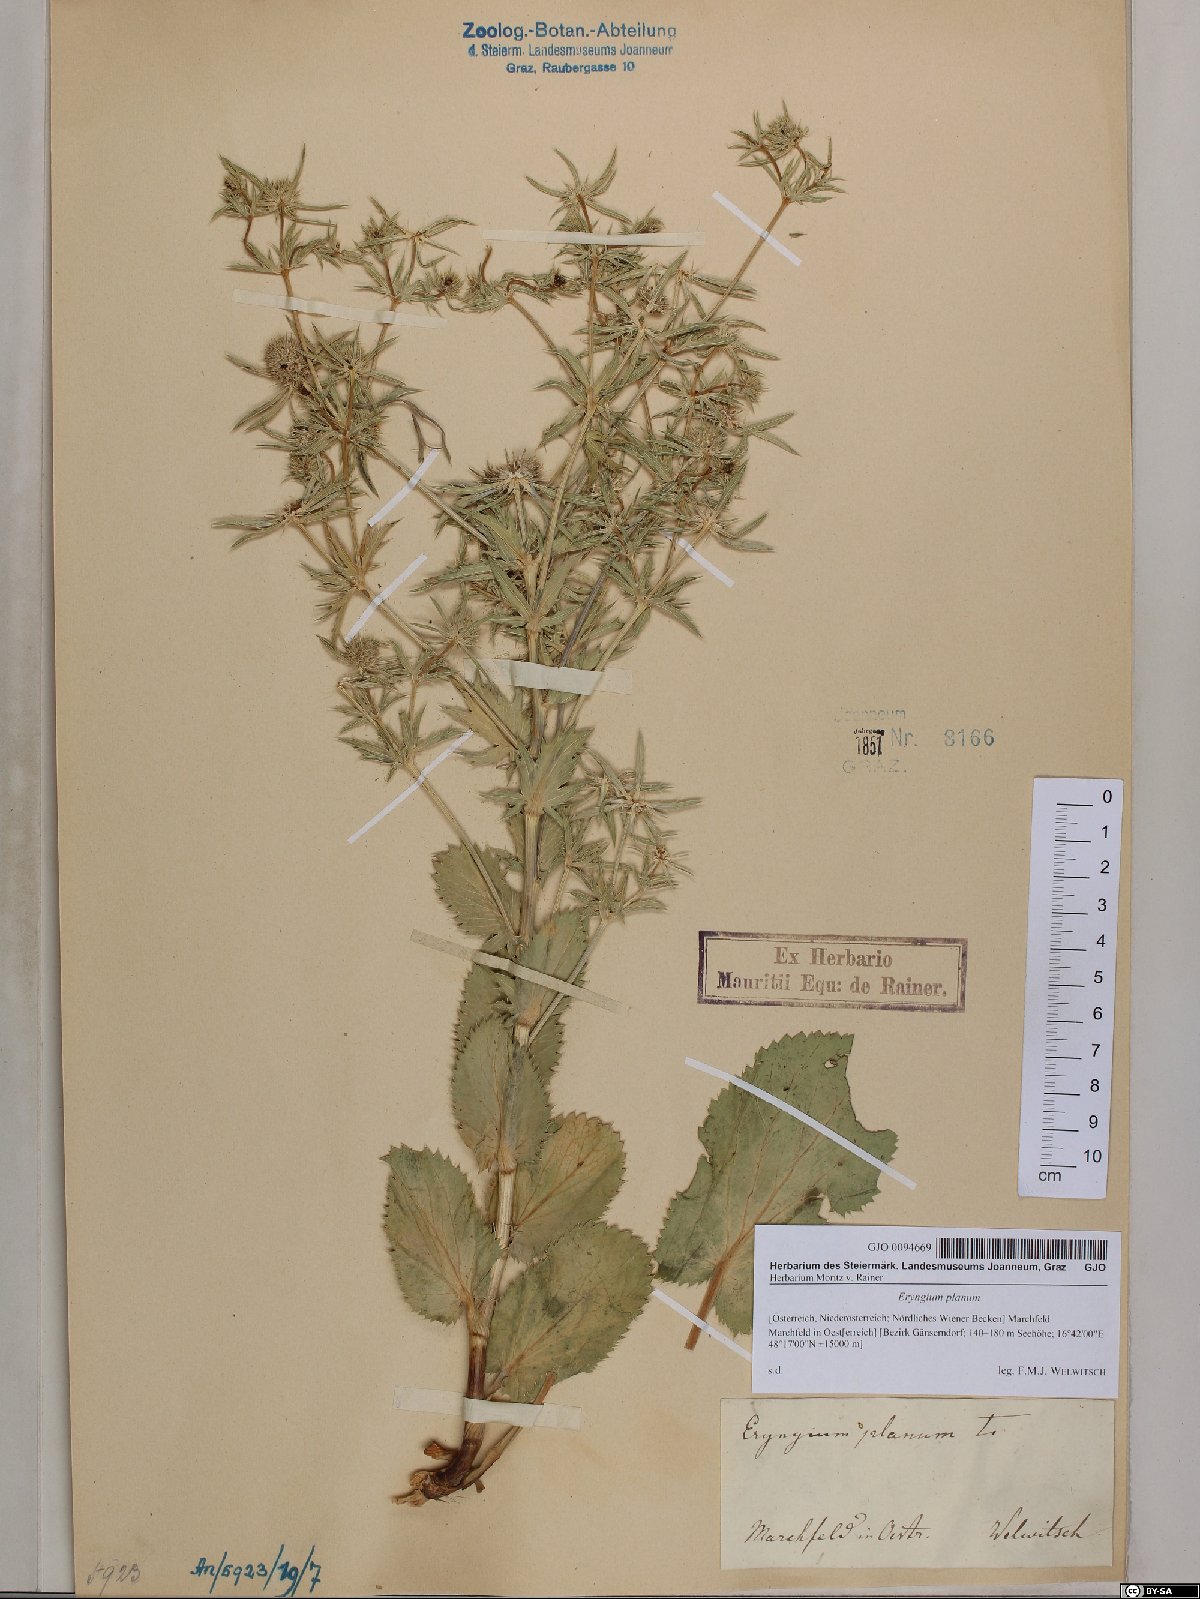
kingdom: Plantae
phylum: Tracheophyta
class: Magnoliopsida
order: Apiales
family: Apiaceae
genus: Eryngium
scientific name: Eryngium planum
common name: Blue eryngo
